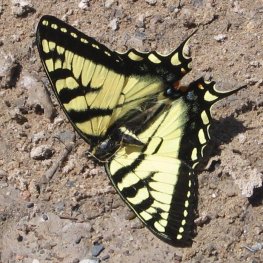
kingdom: Animalia
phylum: Arthropoda
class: Insecta
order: Lepidoptera
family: Papilionidae
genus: Pterourus
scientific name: Pterourus canadensis
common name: Canadian Tiger Swallowtail
